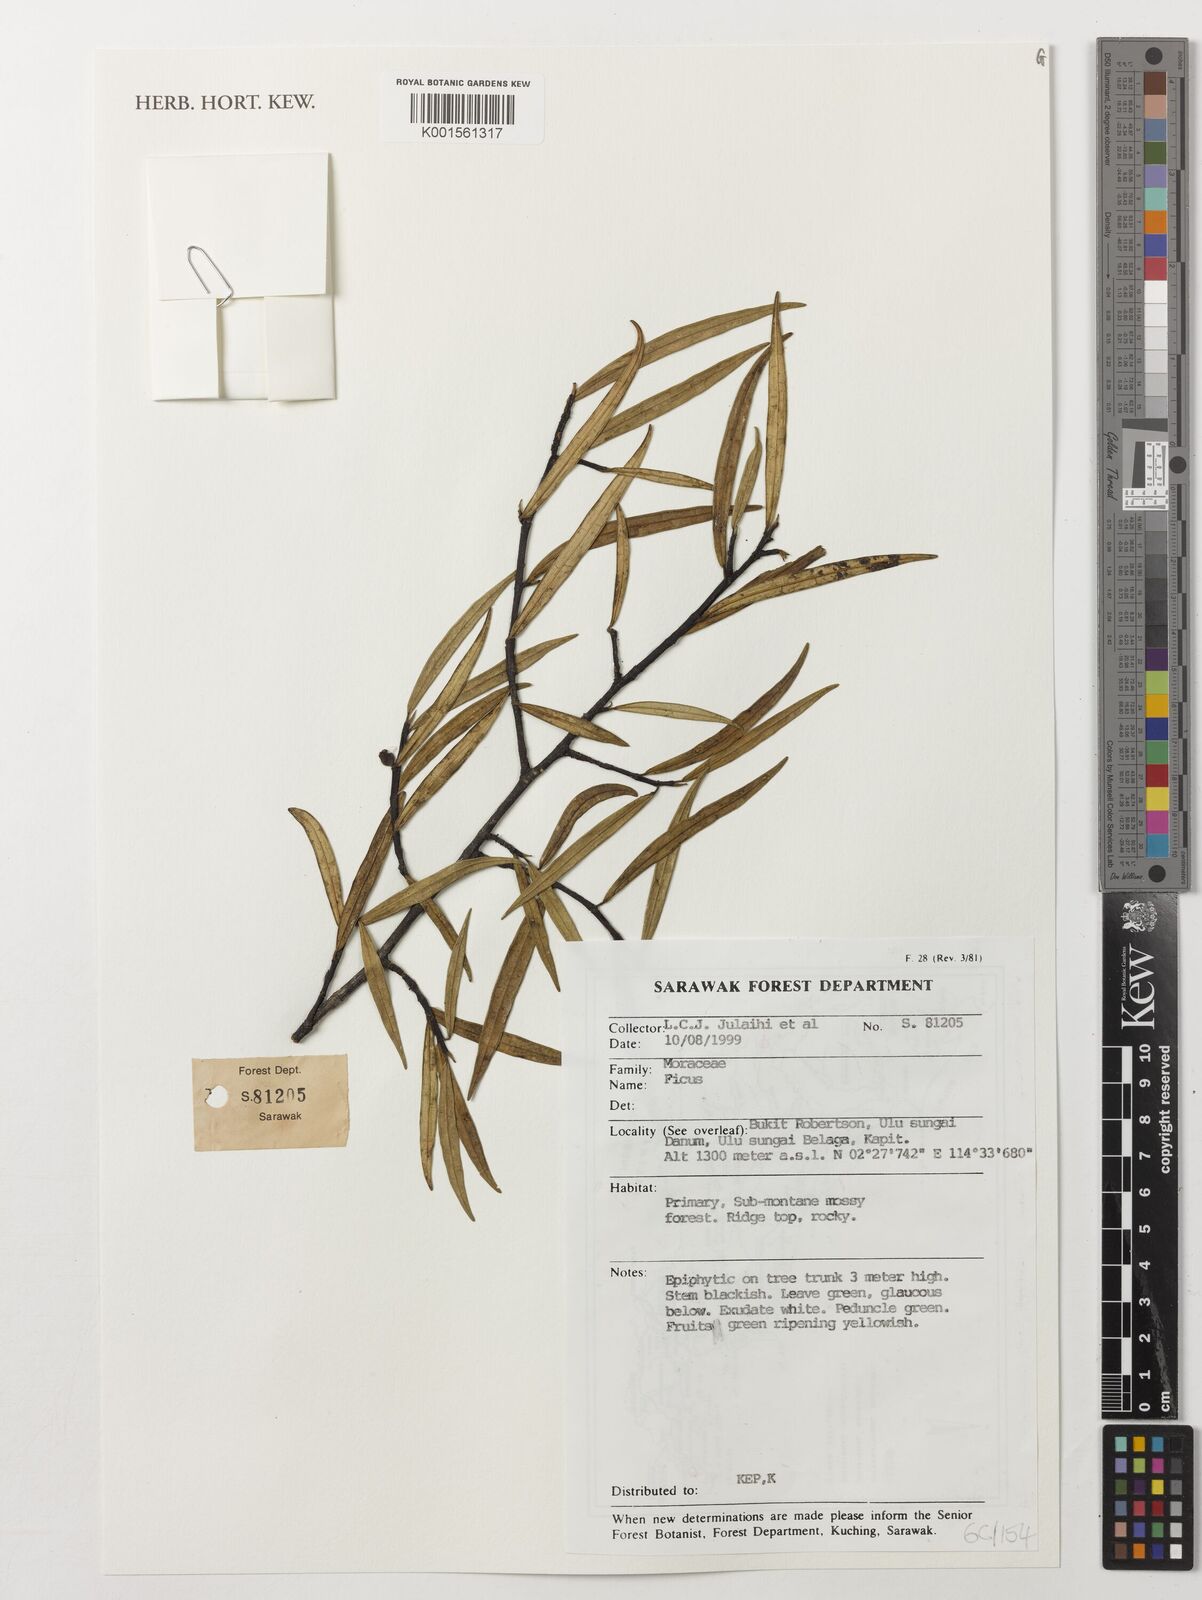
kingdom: Plantae
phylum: Tracheophyta
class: Magnoliopsida
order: Rosales
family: Moraceae
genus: Ficus
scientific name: Ficus
